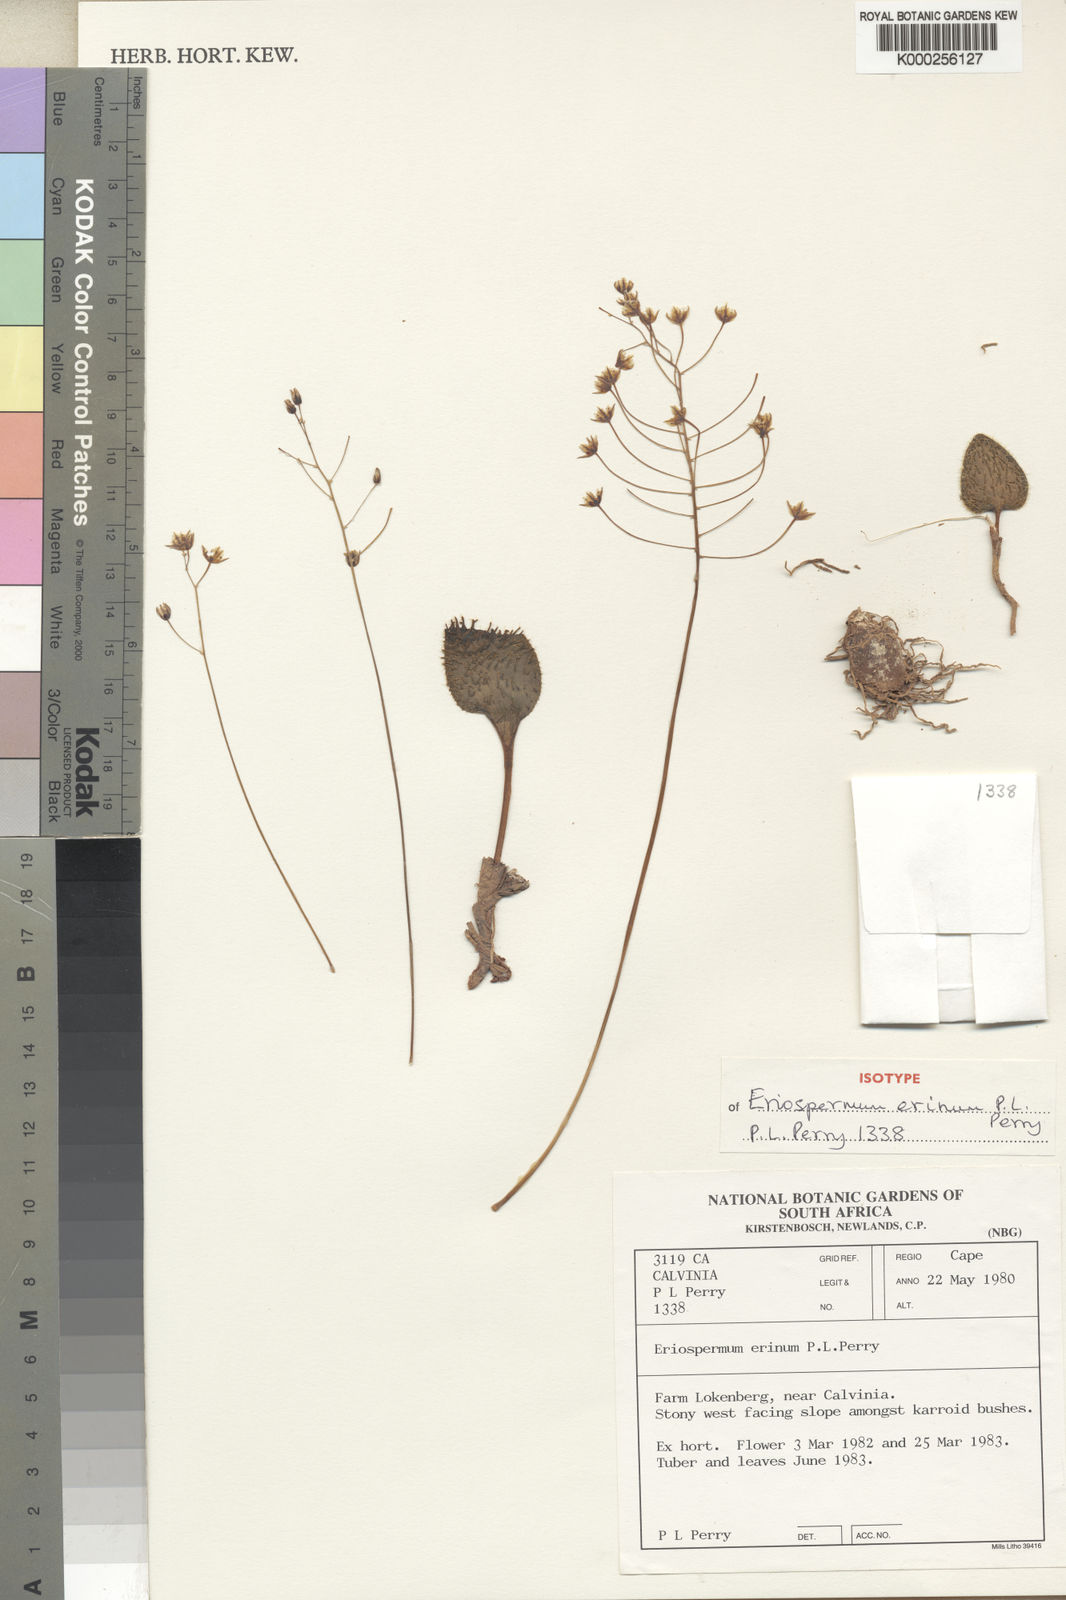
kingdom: Plantae
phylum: Tracheophyta
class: Liliopsida
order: Asparagales
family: Asparagaceae
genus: Eriospermum
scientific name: Eriospermum erinum
